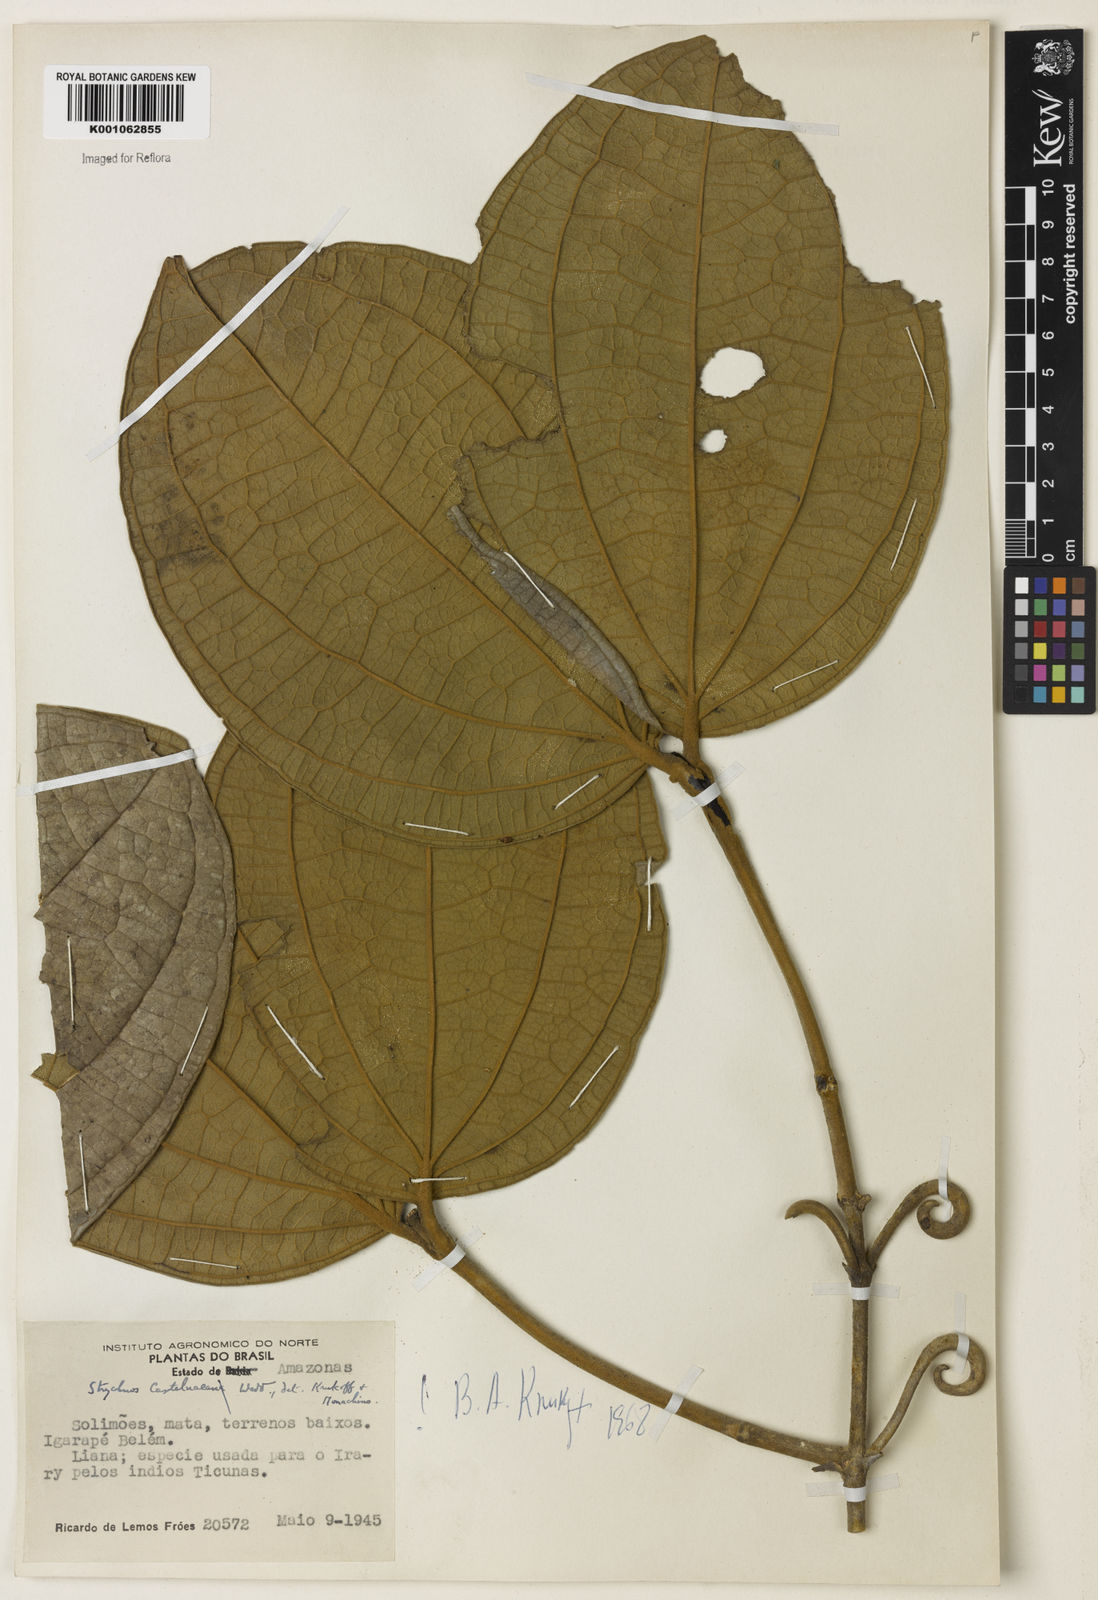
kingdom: Plantae
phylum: Tracheophyta
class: Magnoliopsida
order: Gentianales
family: Loganiaceae
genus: Strychnos
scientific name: Strychnos
